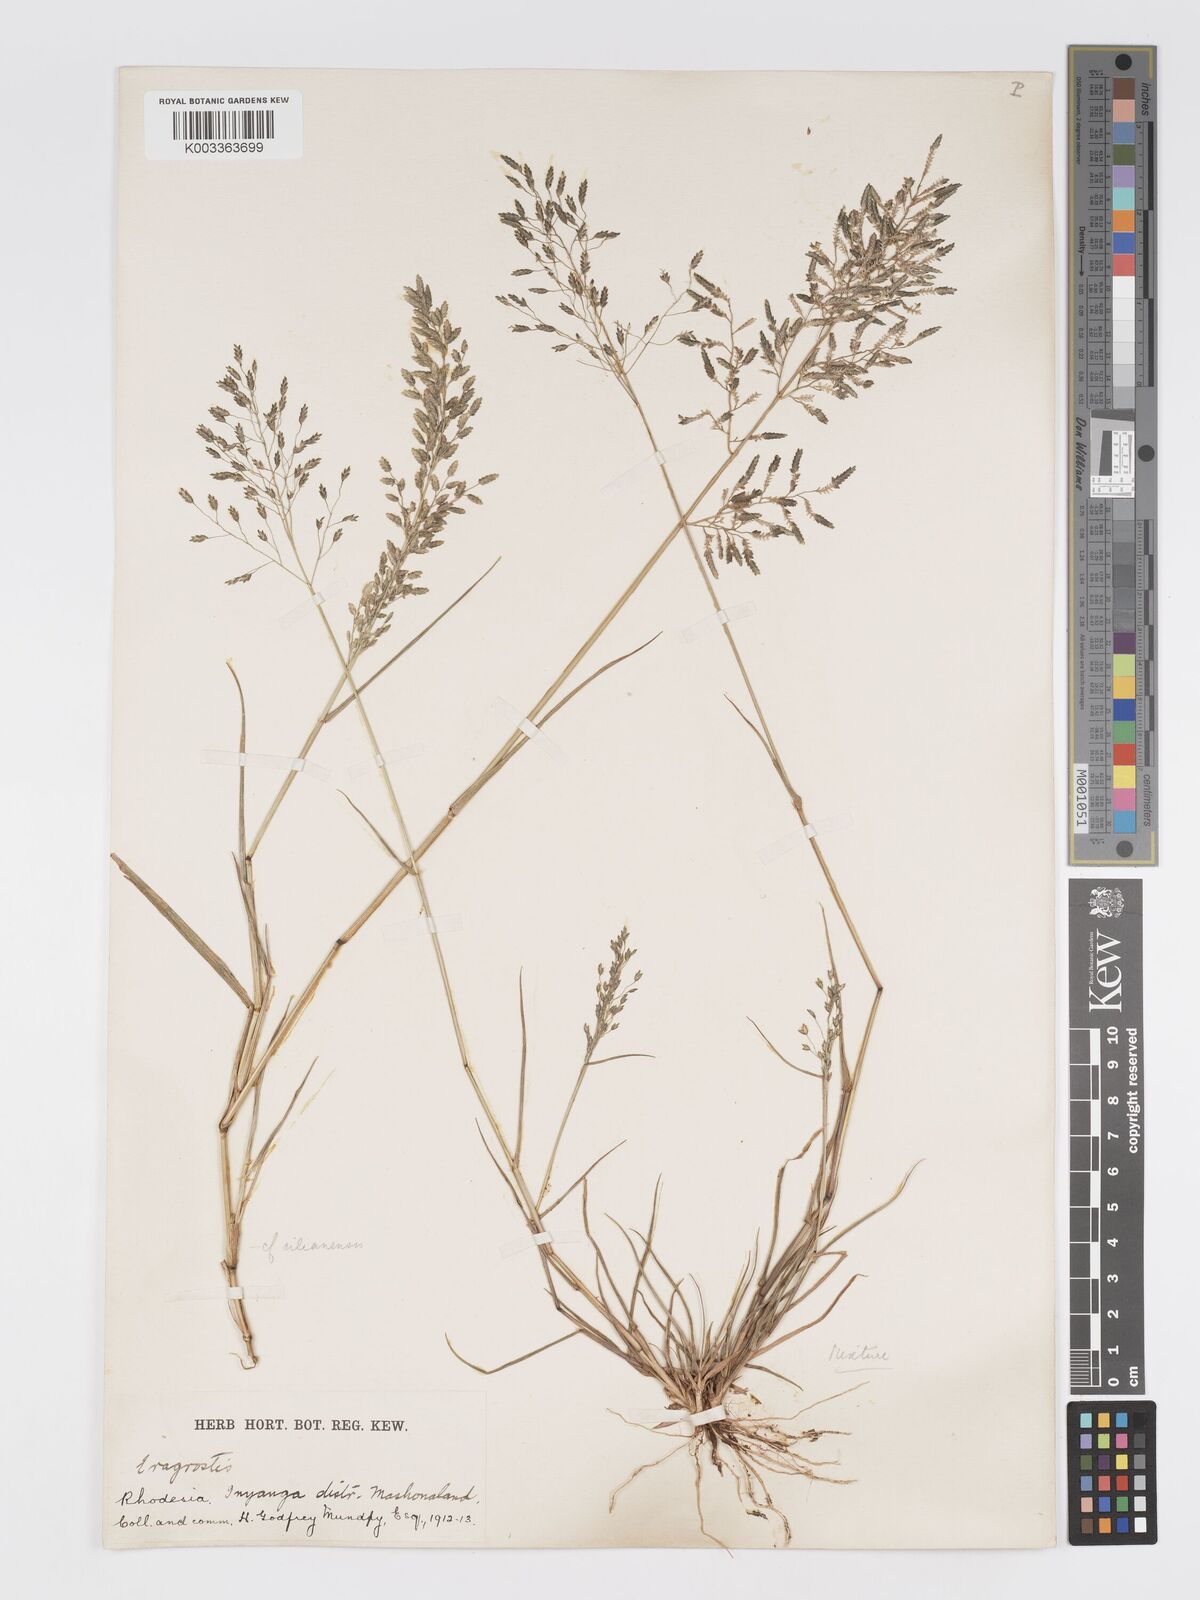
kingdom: Plantae
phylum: Tracheophyta
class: Liliopsida
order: Poales
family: Poaceae
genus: Eragrostis
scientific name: Eragrostis cilianensis
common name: Stinkgrass
